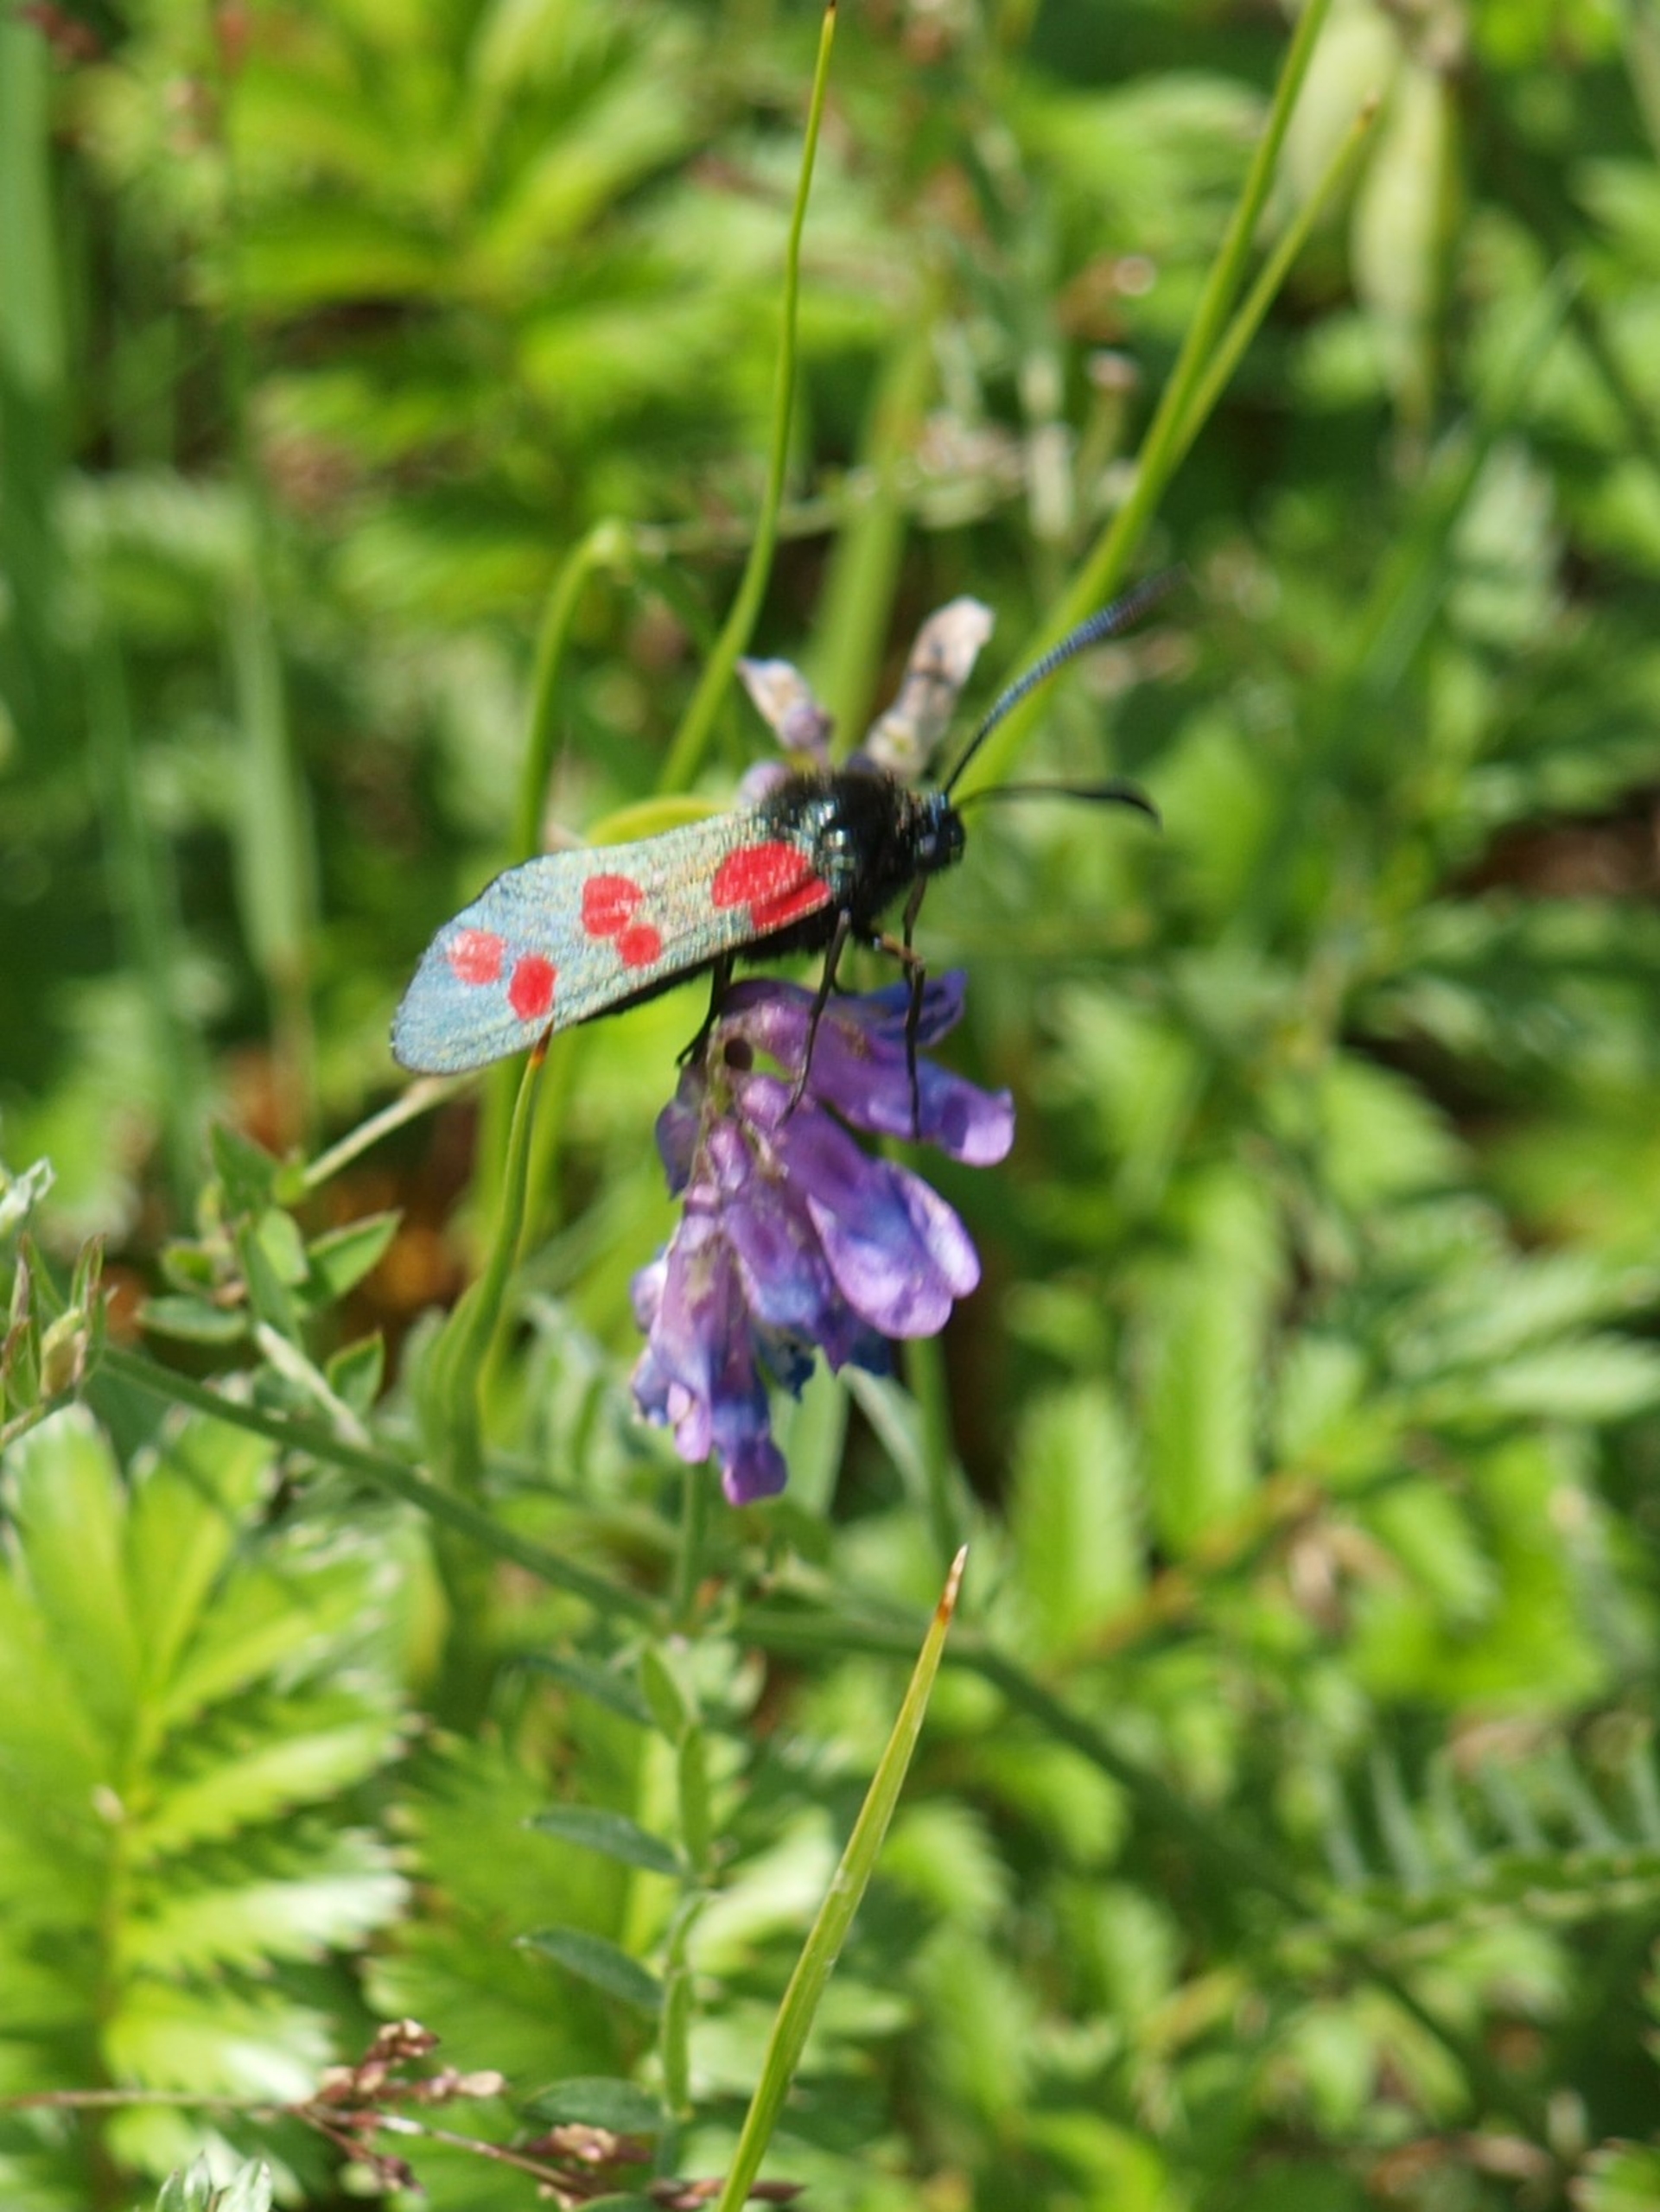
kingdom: Animalia
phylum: Arthropoda
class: Insecta
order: Lepidoptera
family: Zygaenidae
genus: Zygaena
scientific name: Zygaena filipendulae
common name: Seksplettet køllesværmer
